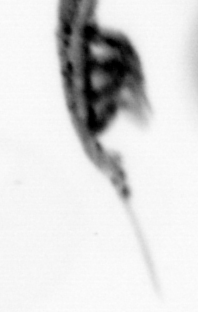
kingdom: Animalia
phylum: Arthropoda
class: Copepoda
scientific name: Copepoda
